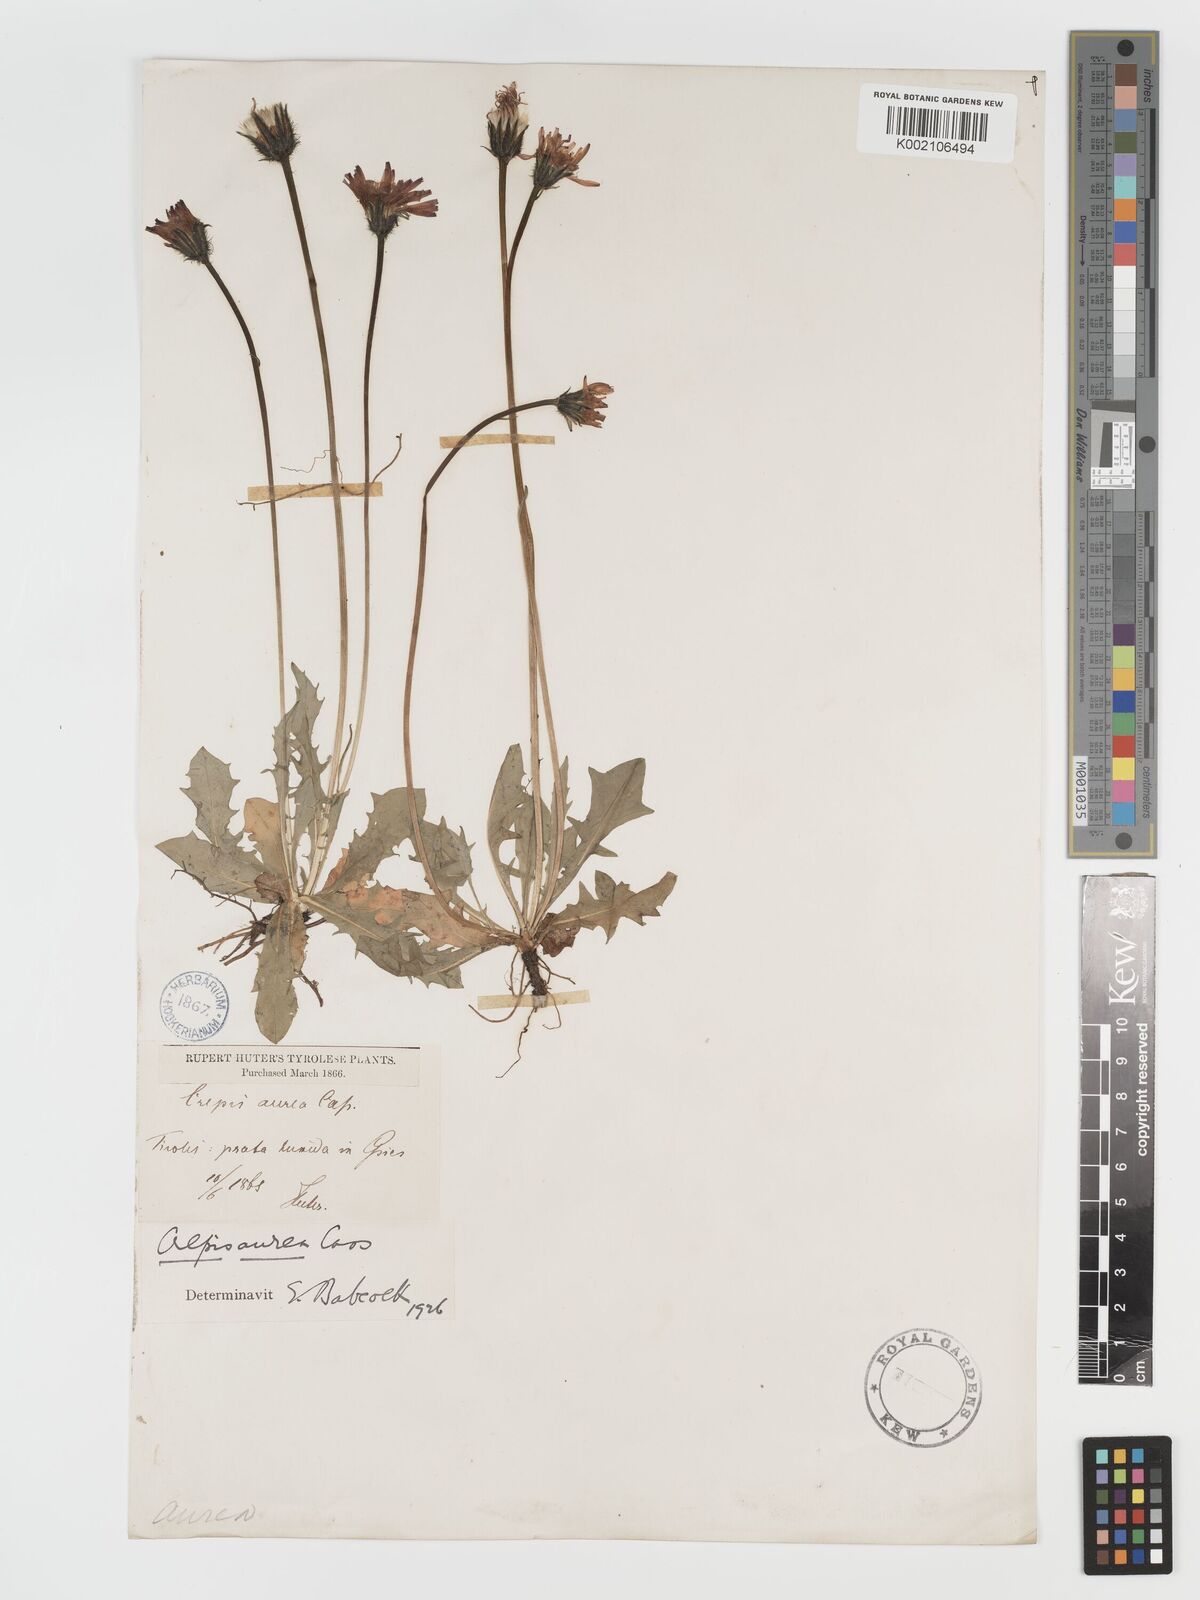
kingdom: Plantae
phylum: Tracheophyta
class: Magnoliopsida
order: Asterales
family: Asteraceae
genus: Crepis
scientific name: Crepis aurea
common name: Golden hawk's-beard
